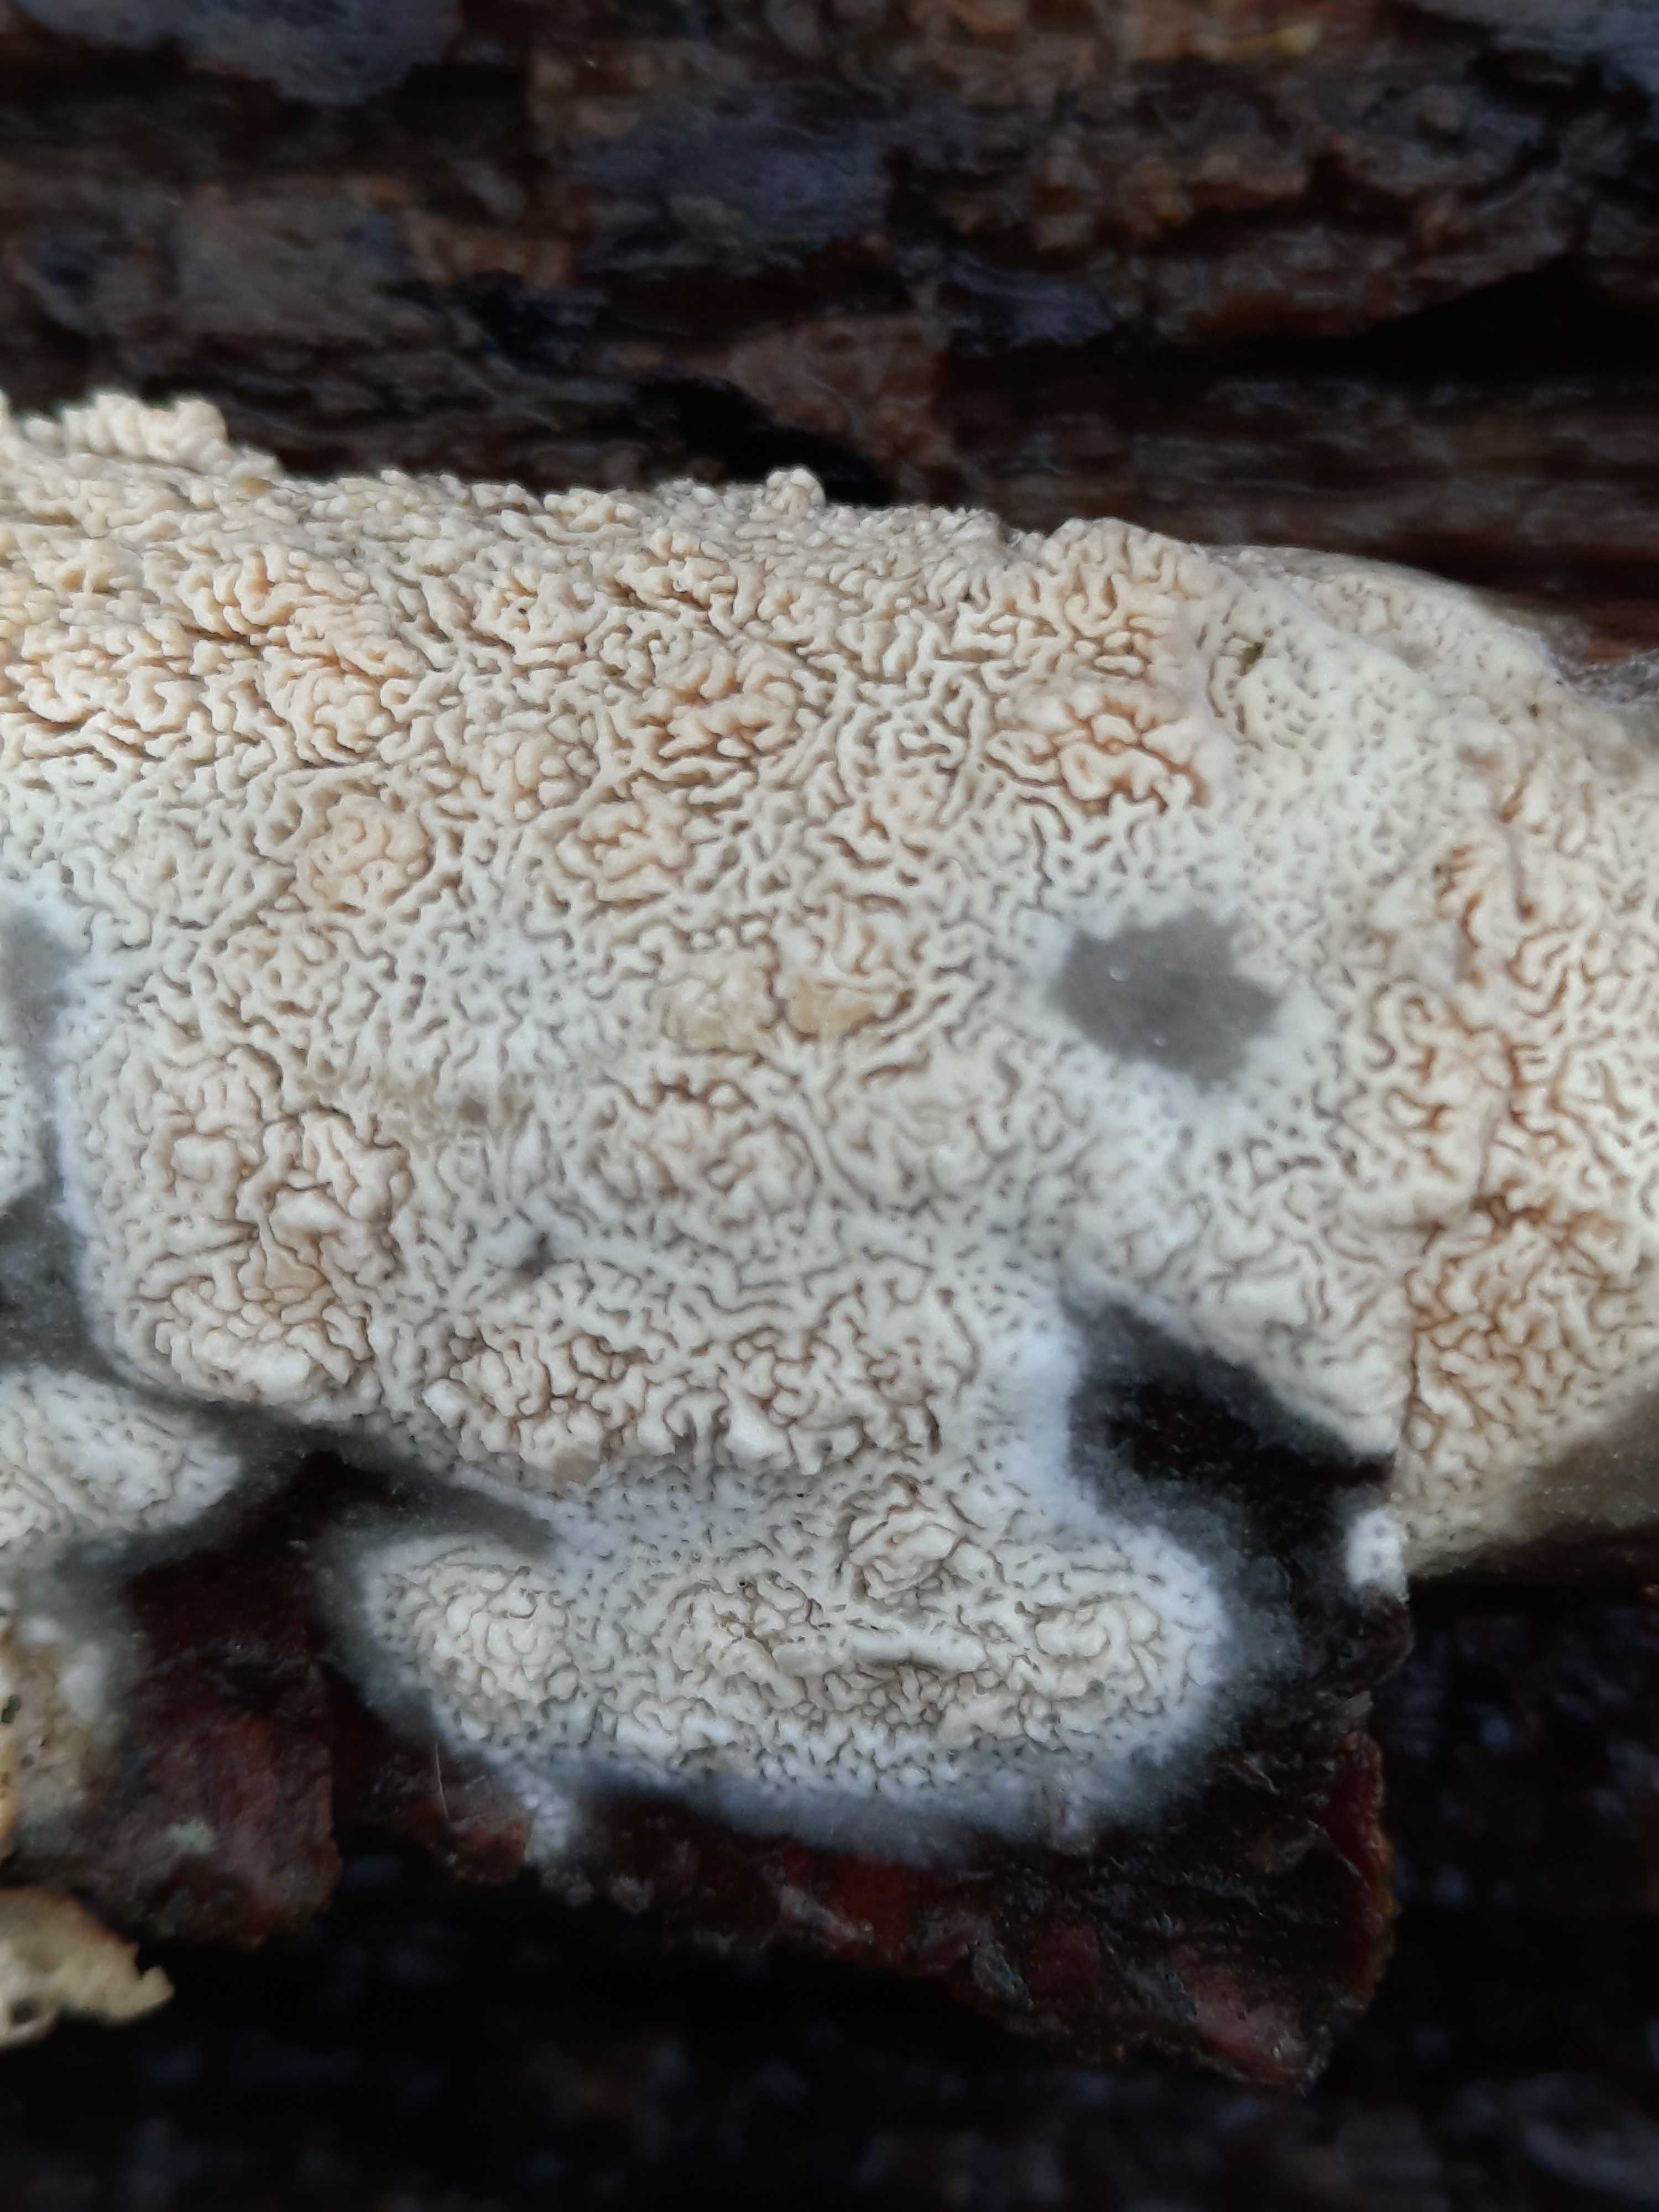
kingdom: Fungi
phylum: Basidiomycota
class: Agaricomycetes
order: Hymenochaetales
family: Schizoporaceae
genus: Xylodon
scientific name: Xylodon subtropicus
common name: labyrint-tandsvamp
